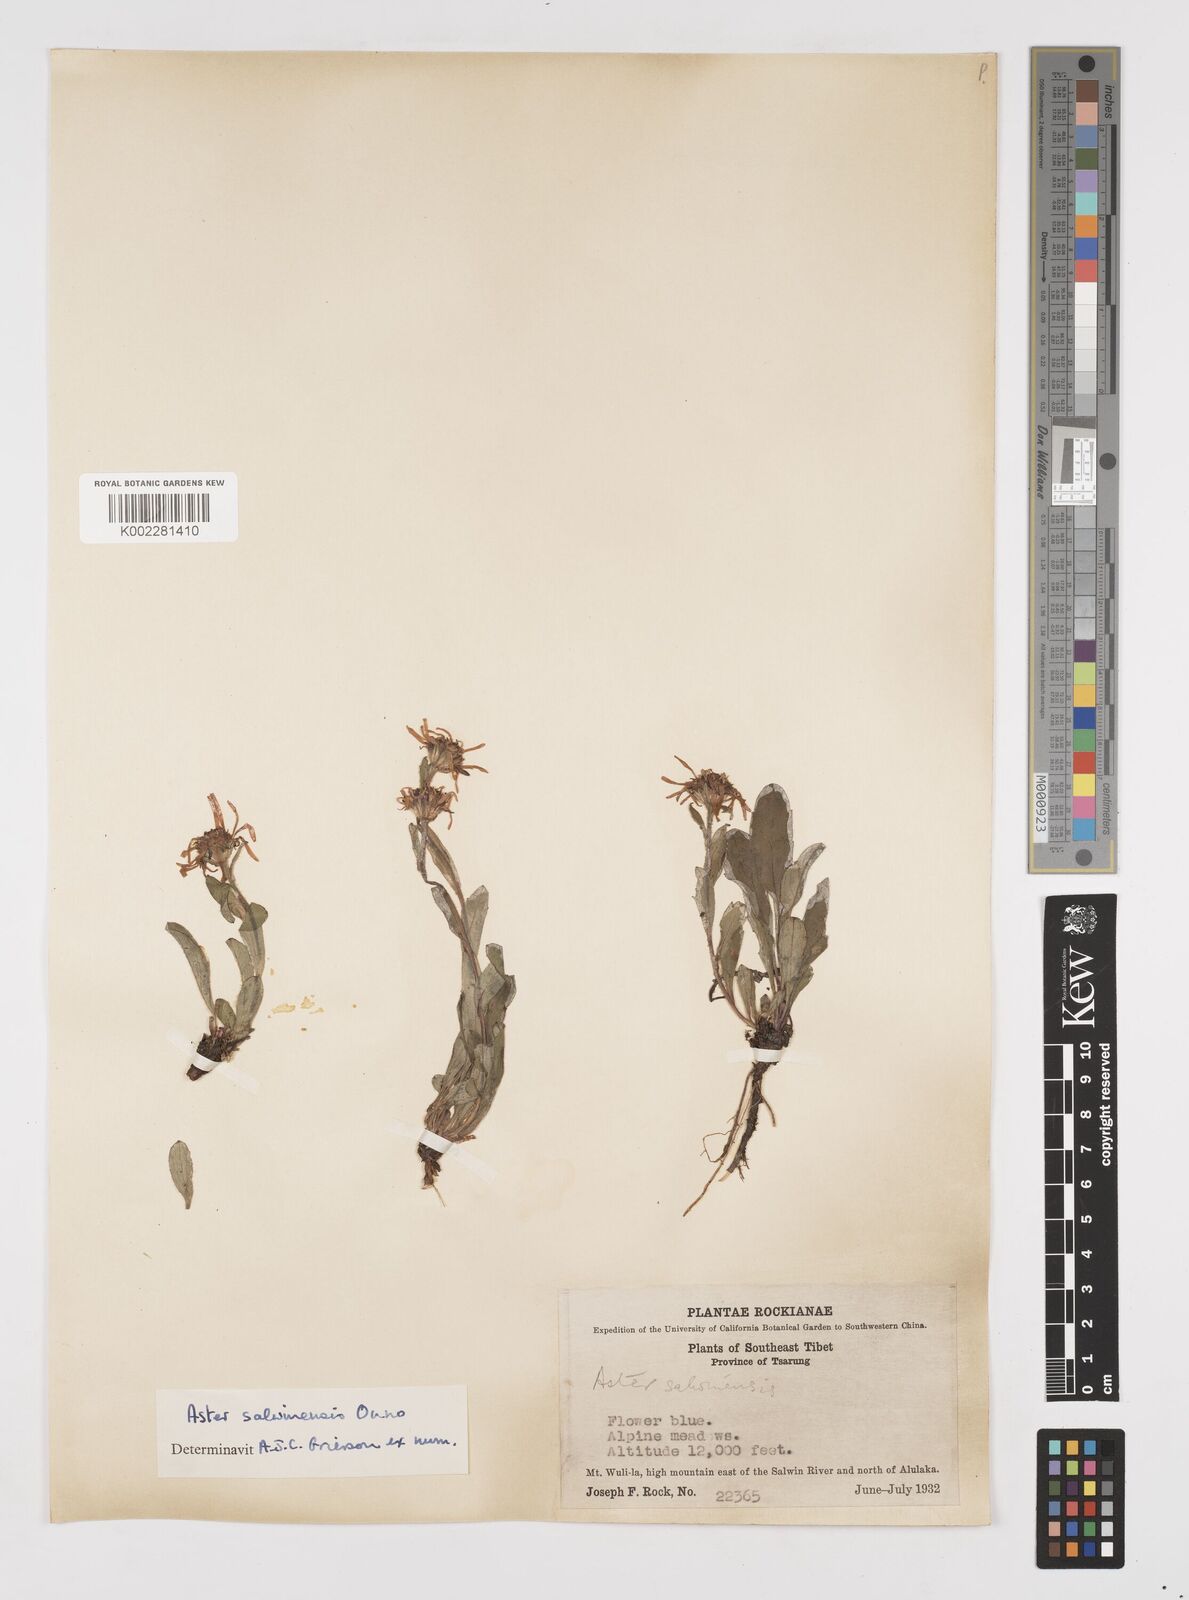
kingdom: Plantae
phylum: Tracheophyta
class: Magnoliopsida
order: Asterales
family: Asteraceae
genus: Tibetiodes
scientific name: Tibetiodes salwinensis
